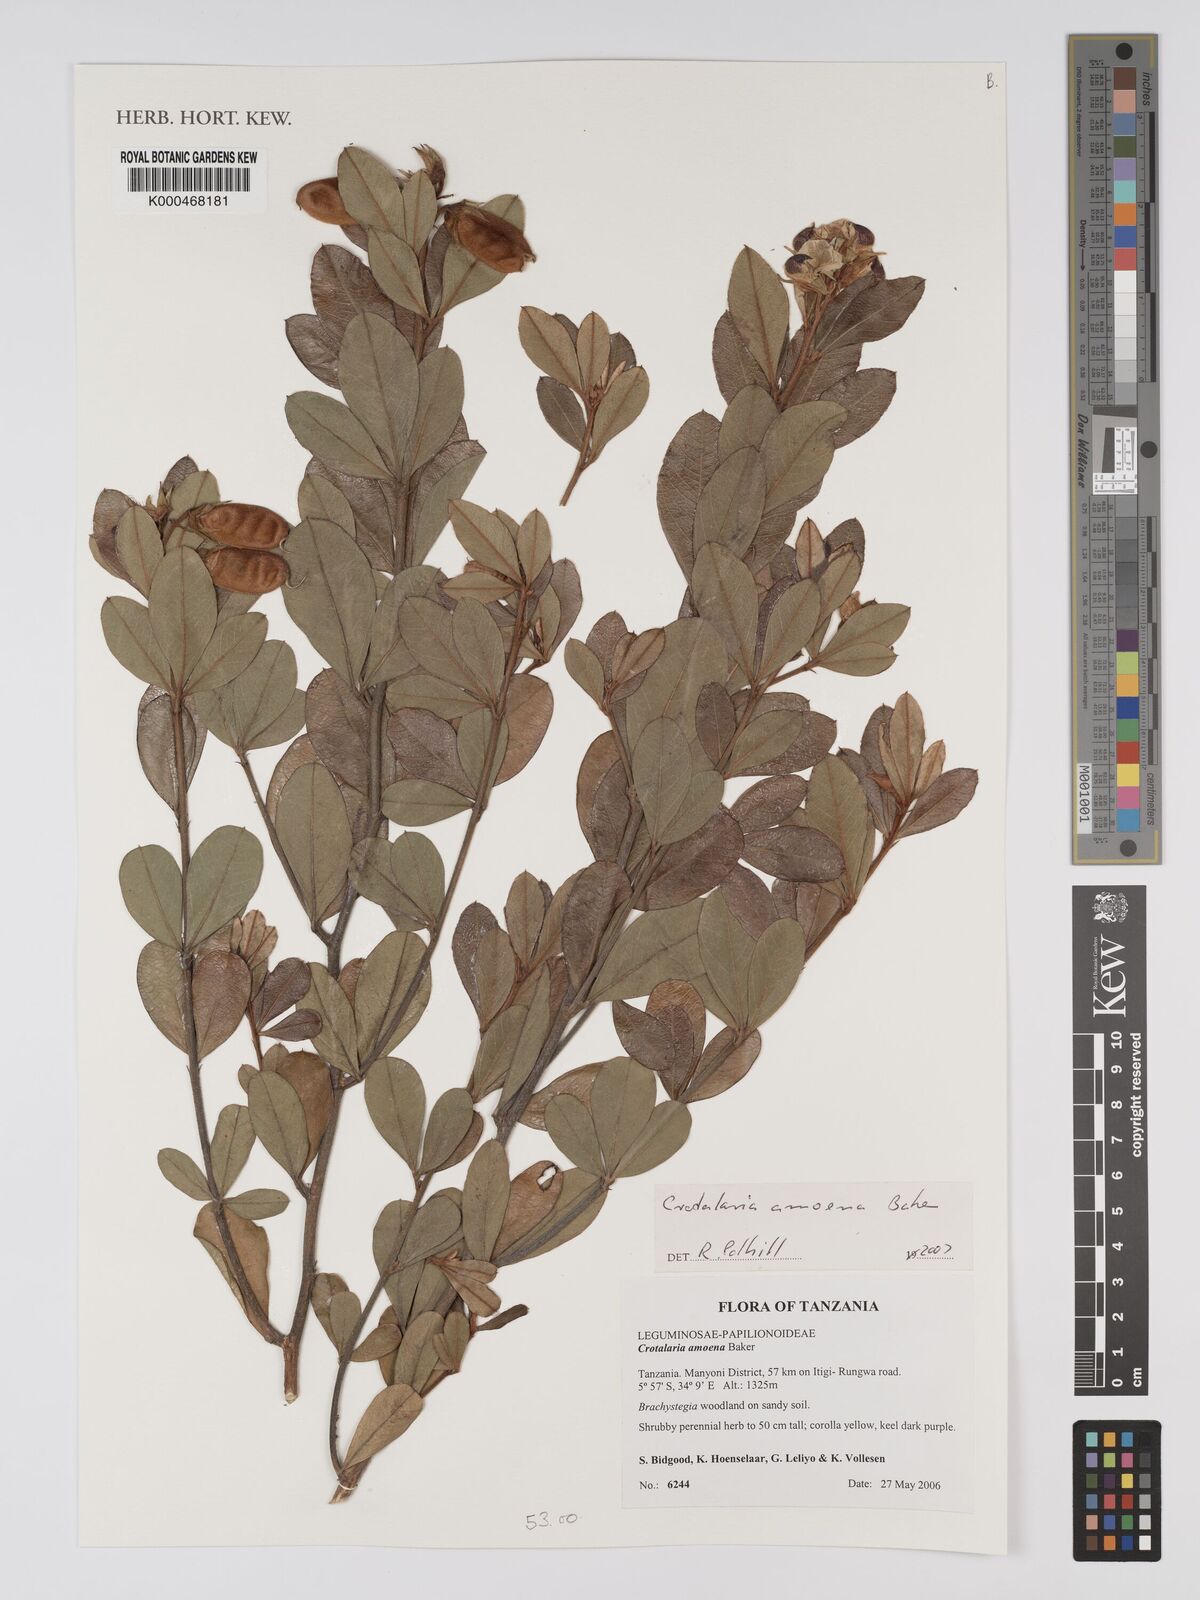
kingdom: Plantae
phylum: Tracheophyta
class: Magnoliopsida
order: Fabales
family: Fabaceae
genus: Crotalaria
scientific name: Crotalaria amoena
